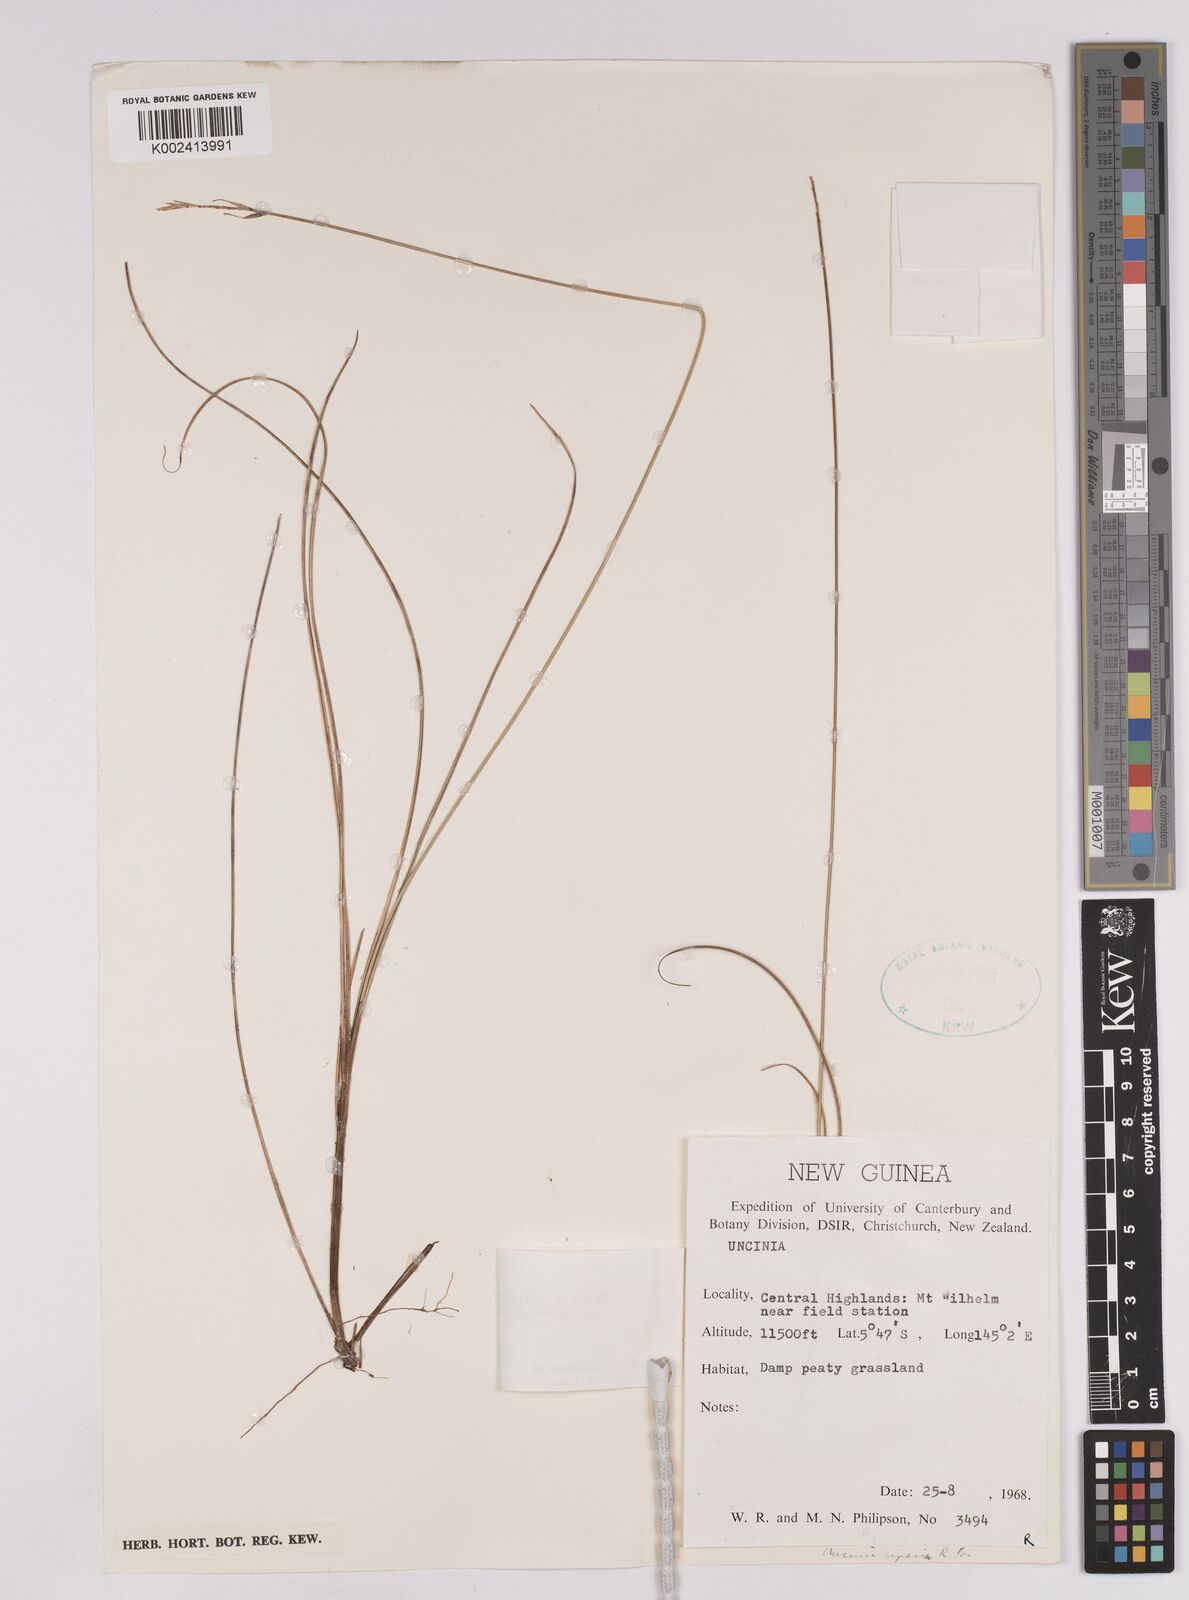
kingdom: Plantae
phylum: Tracheophyta
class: Liliopsida
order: Poales
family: Cyperaceae
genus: Carex
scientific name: Carex cheesemanniana
